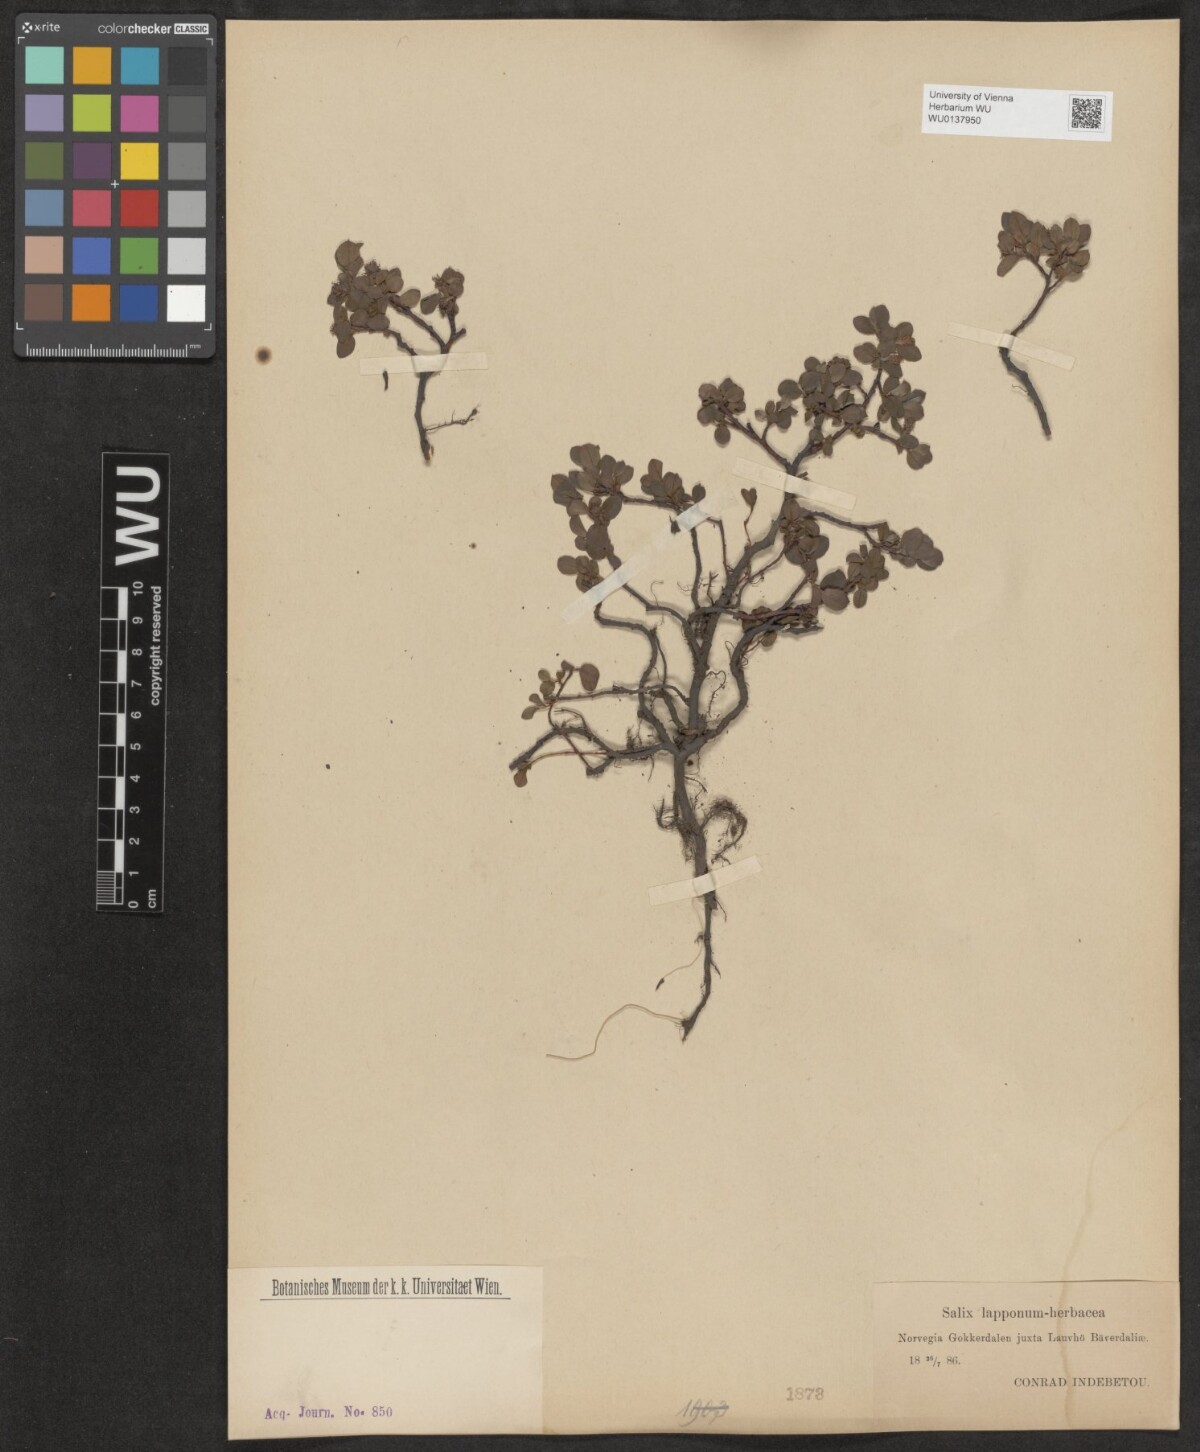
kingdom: Plantae
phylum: Tracheophyta
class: Magnoliopsida
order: Malpighiales
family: Salicaceae
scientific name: Salicaceae
